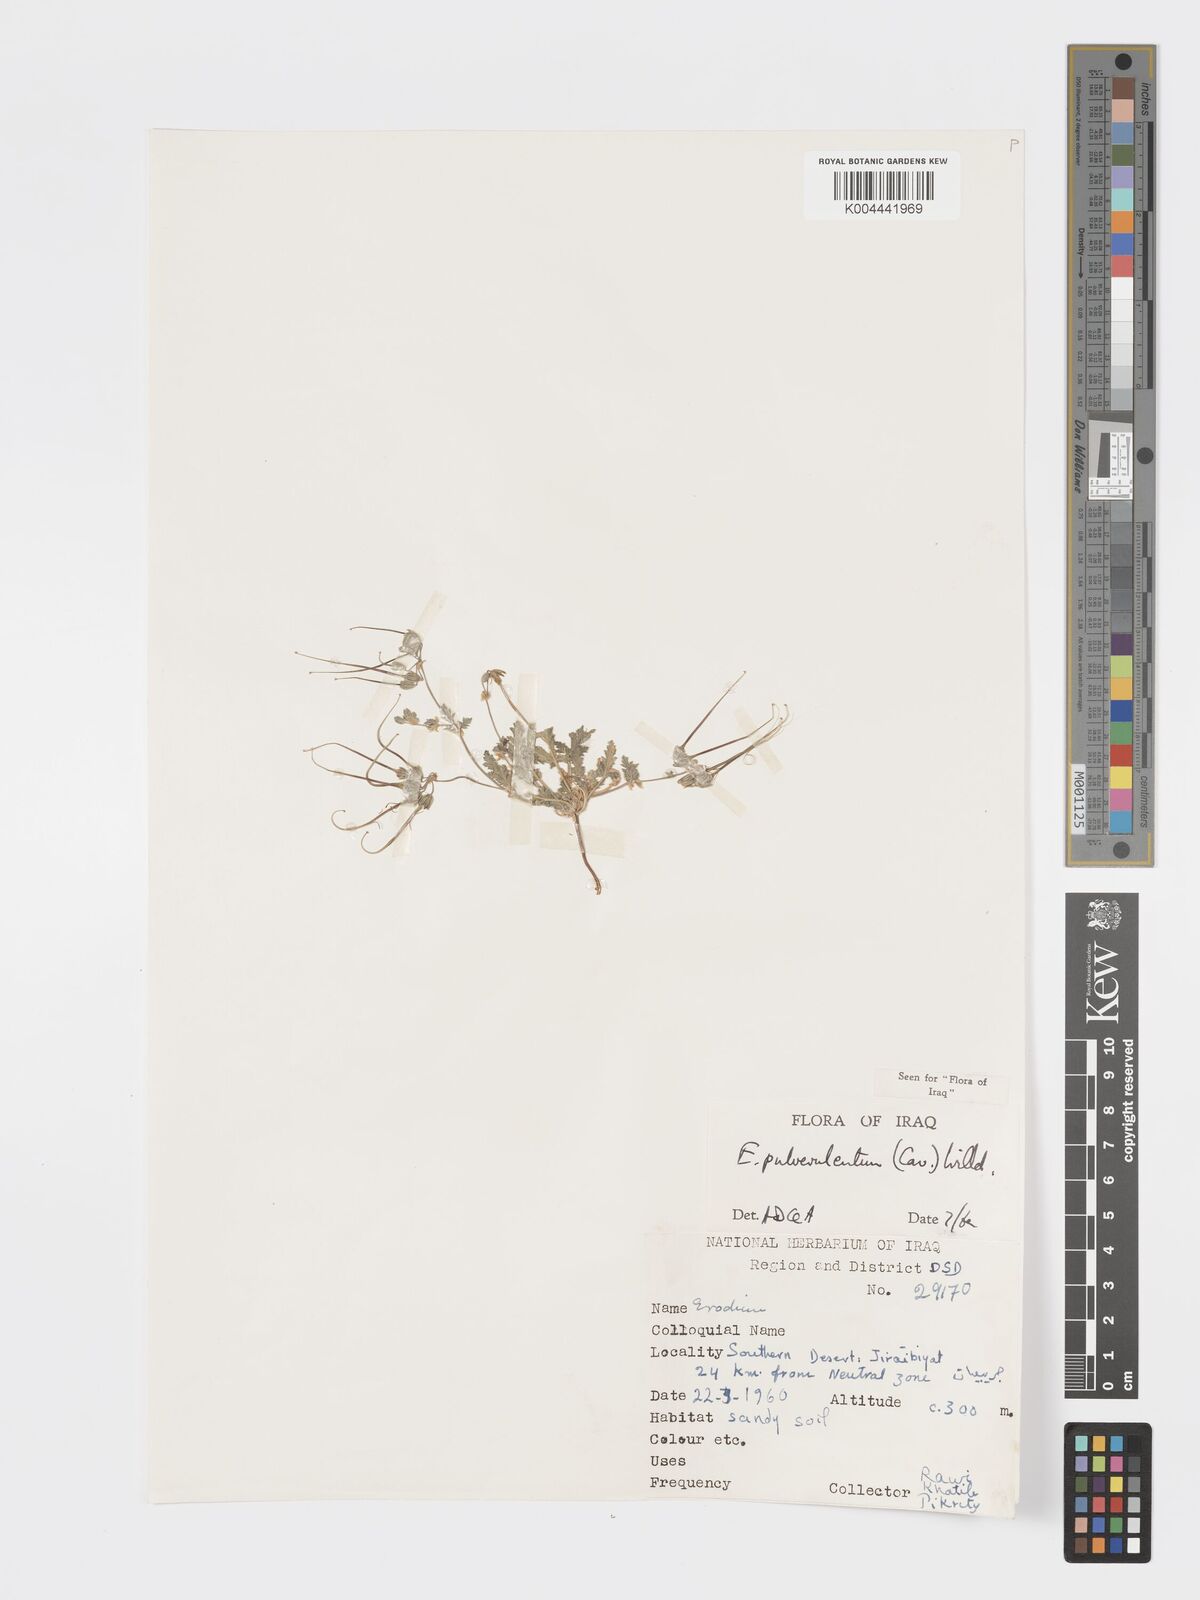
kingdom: Plantae
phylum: Tracheophyta
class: Magnoliopsida
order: Geraniales
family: Geraniaceae
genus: Erodium
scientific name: Erodium laciniatum
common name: Cutleaf stork's bill
